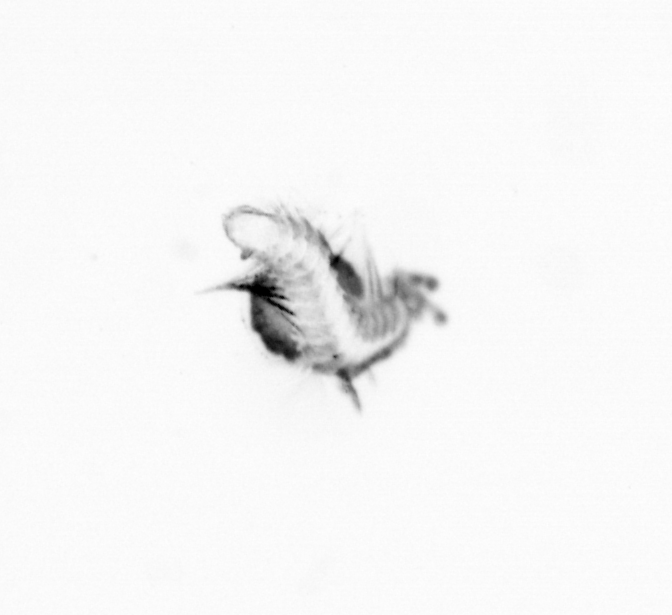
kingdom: Animalia
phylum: Annelida
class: Polychaeta
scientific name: Polychaeta
